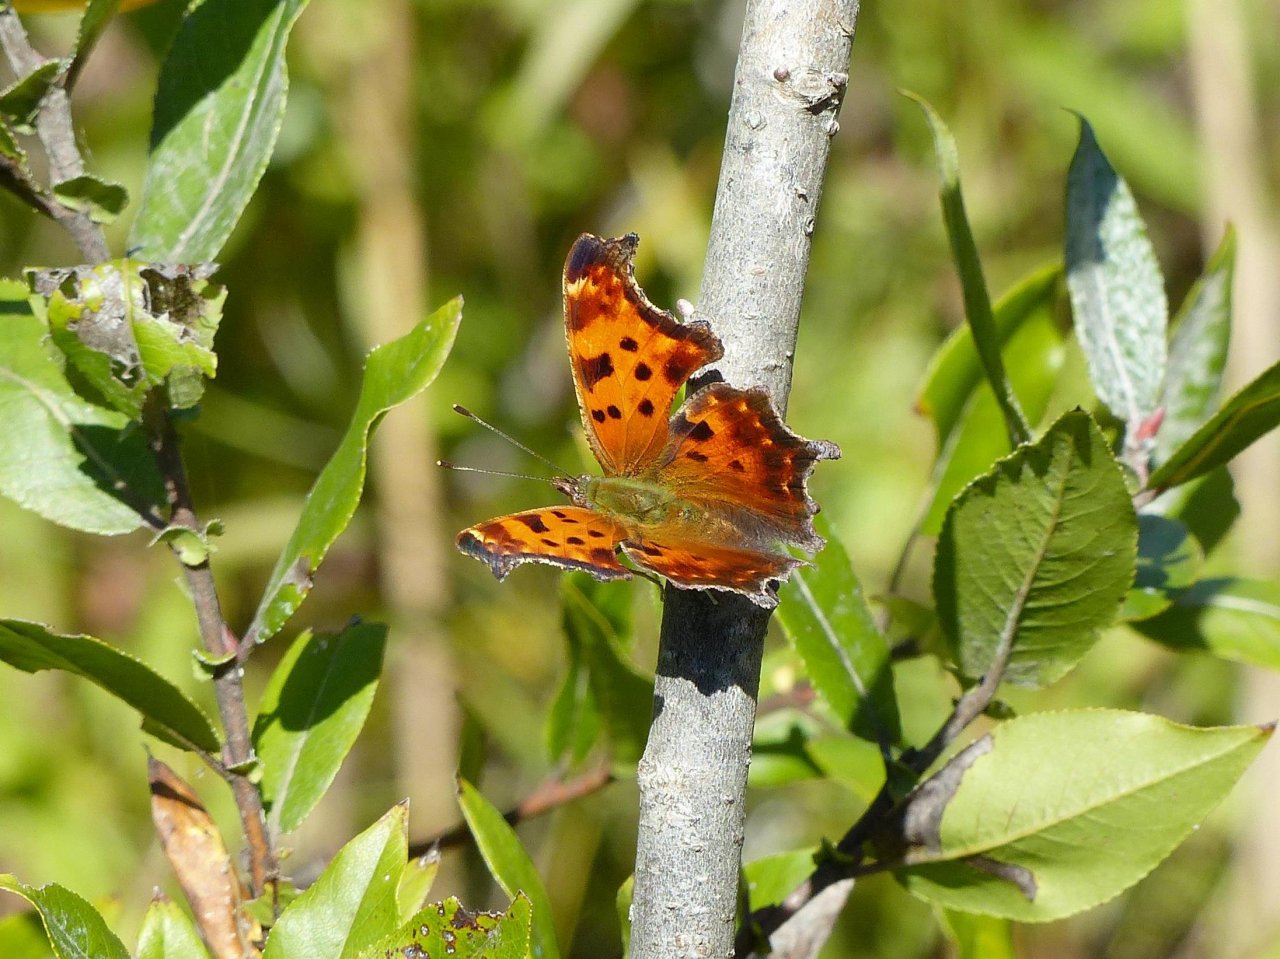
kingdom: Animalia
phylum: Arthropoda
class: Insecta
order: Lepidoptera
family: Nymphalidae
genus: Polygonia
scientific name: Polygonia comma
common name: Eastern Comma
